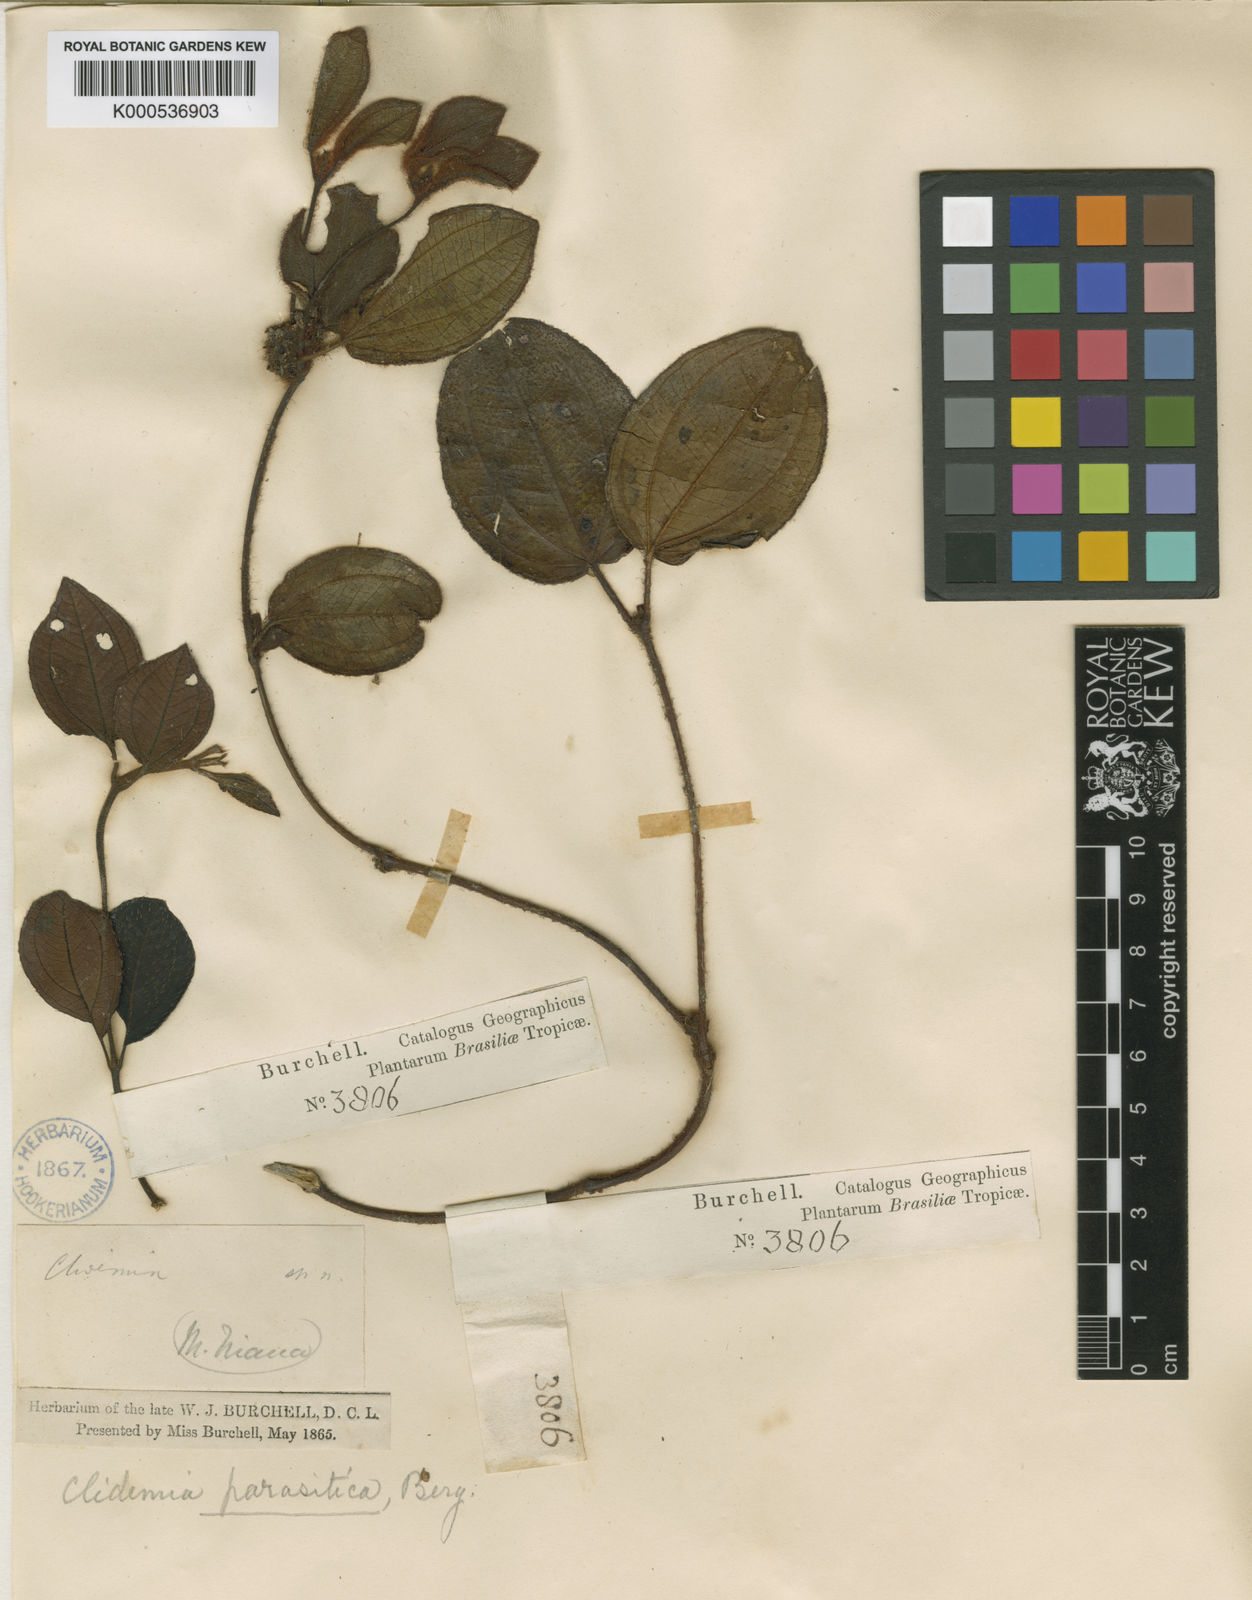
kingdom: Plantae
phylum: Tracheophyta
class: Magnoliopsida
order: Myrtales
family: Melastomataceae
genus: Miconia
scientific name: Miconia blepharodes
